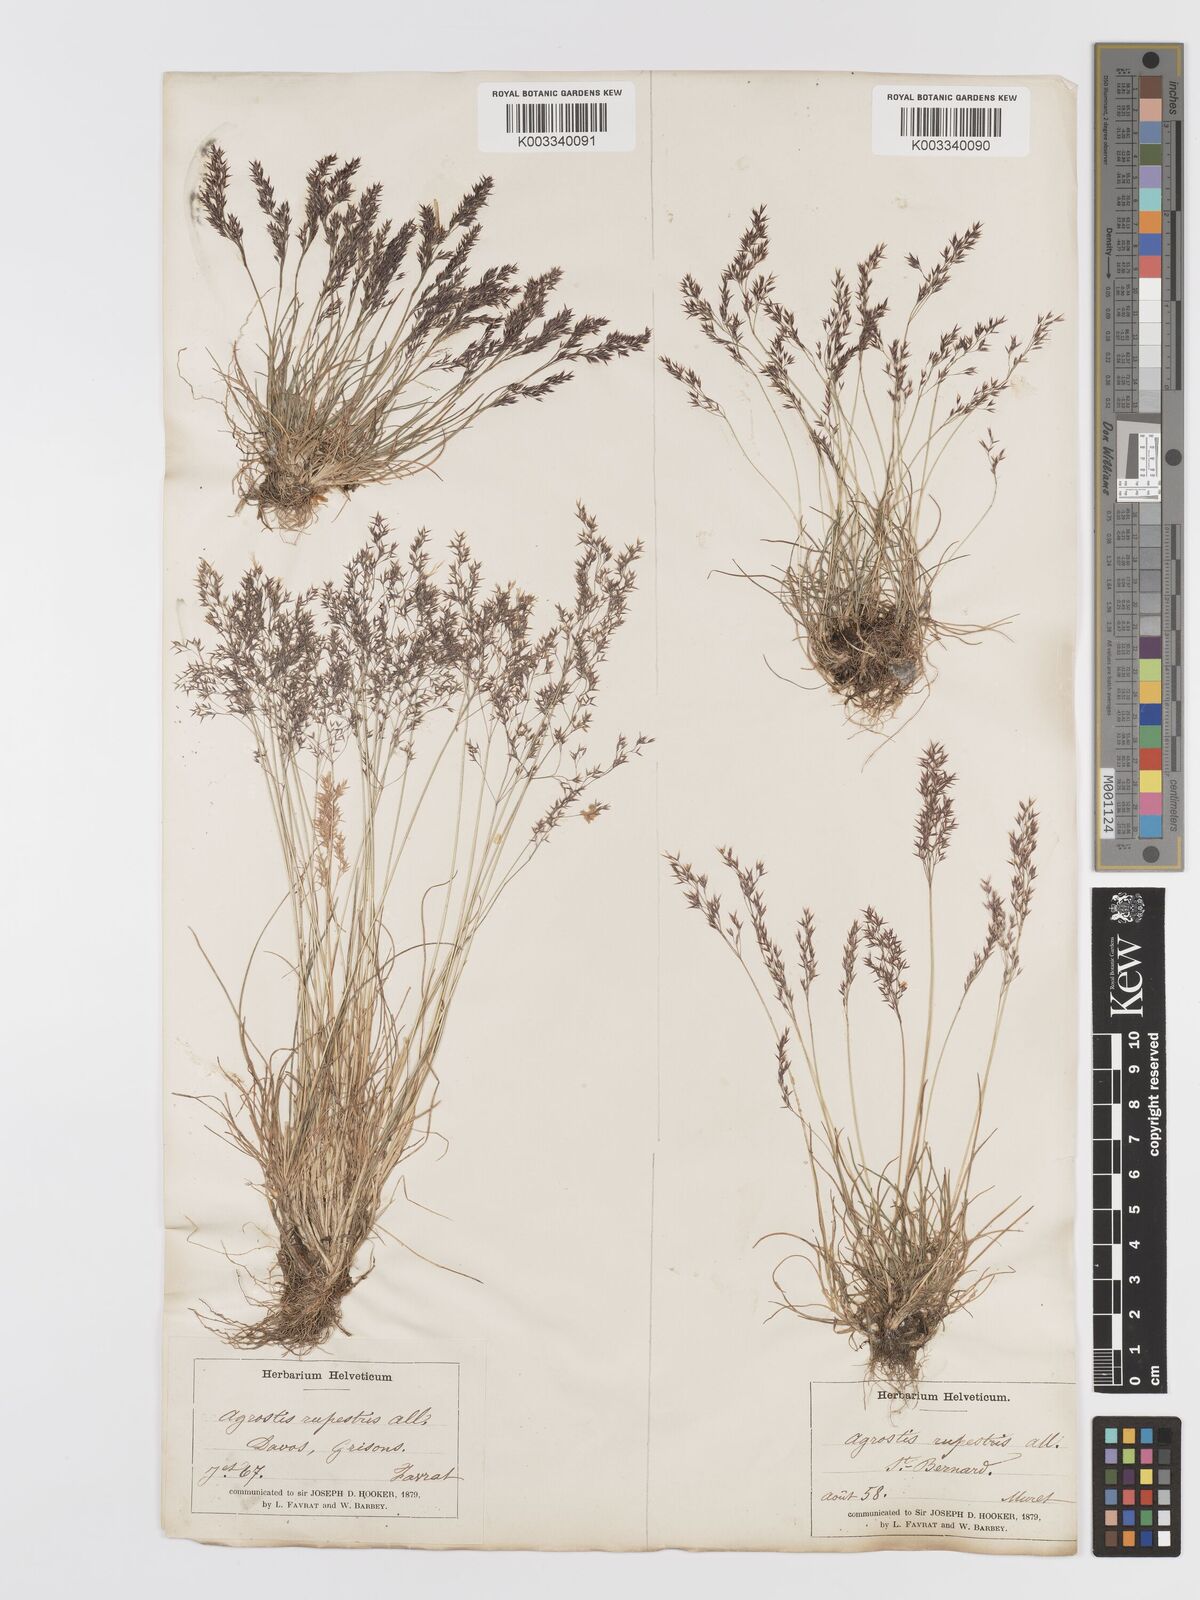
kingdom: Plantae
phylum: Tracheophyta
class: Liliopsida
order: Poales
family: Poaceae
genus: Agrostis
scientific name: Agrostis rupestris
